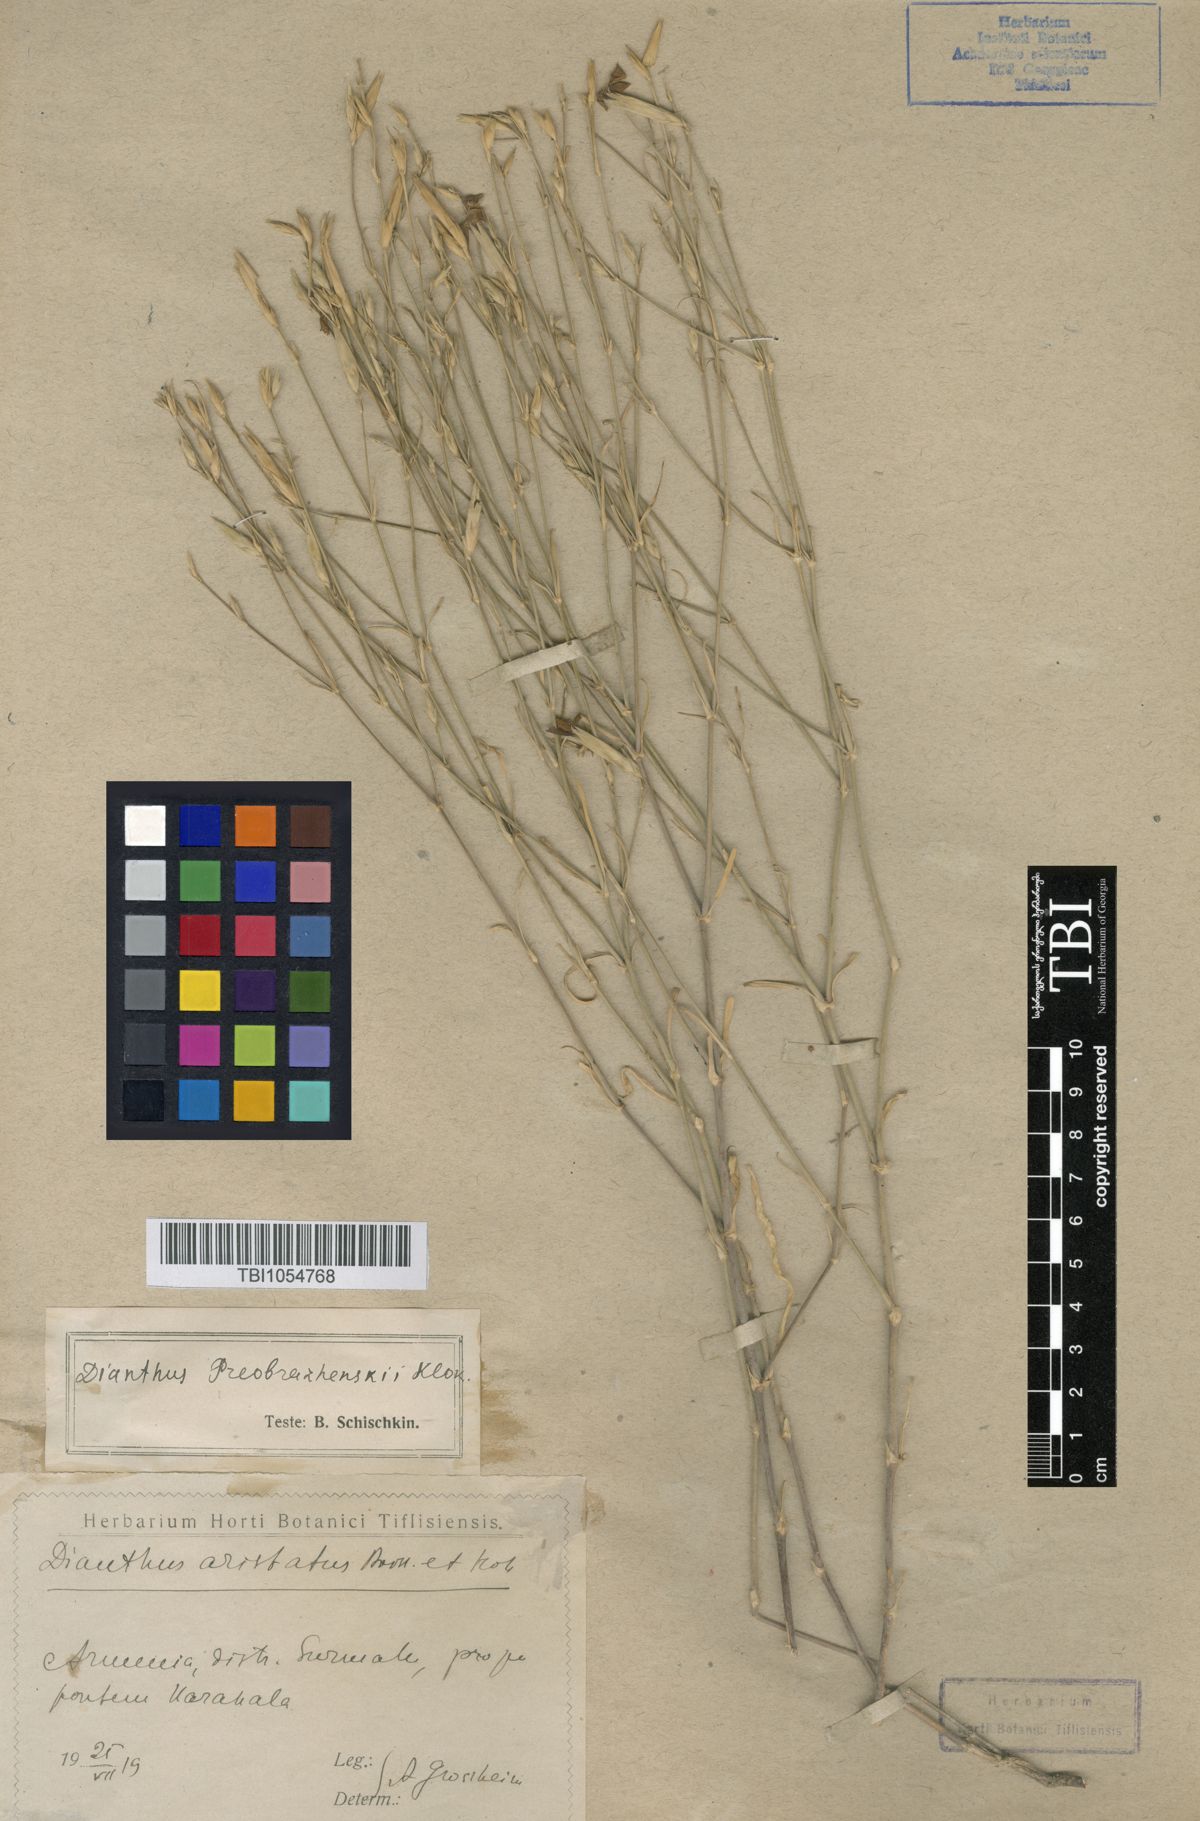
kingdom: Plantae
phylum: Tracheophyta
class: Magnoliopsida
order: Caryophyllales
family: Caryophyllaceae
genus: Dianthus
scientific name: Dianthus bicolor
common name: Bicolour pink
